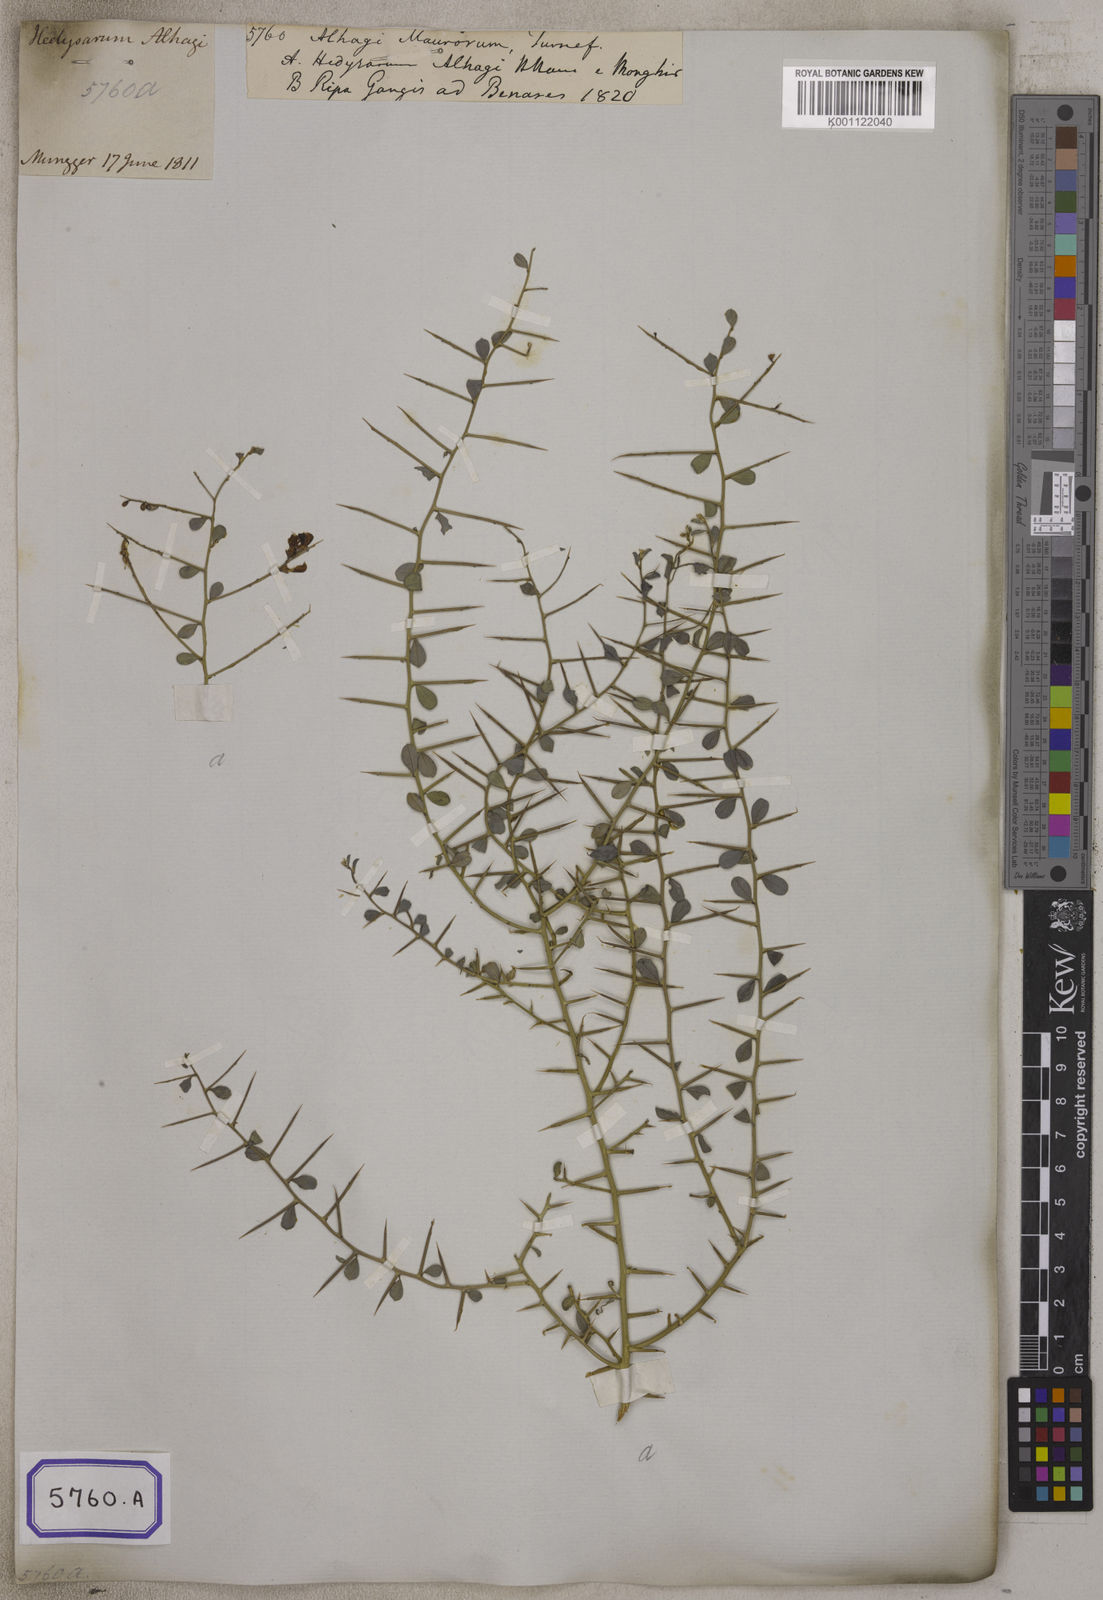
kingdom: Plantae
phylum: Tracheophyta
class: Magnoliopsida
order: Fabales
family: Fabaceae
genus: Alhagi
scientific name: Alhagi maurorum
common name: Camelthorn
